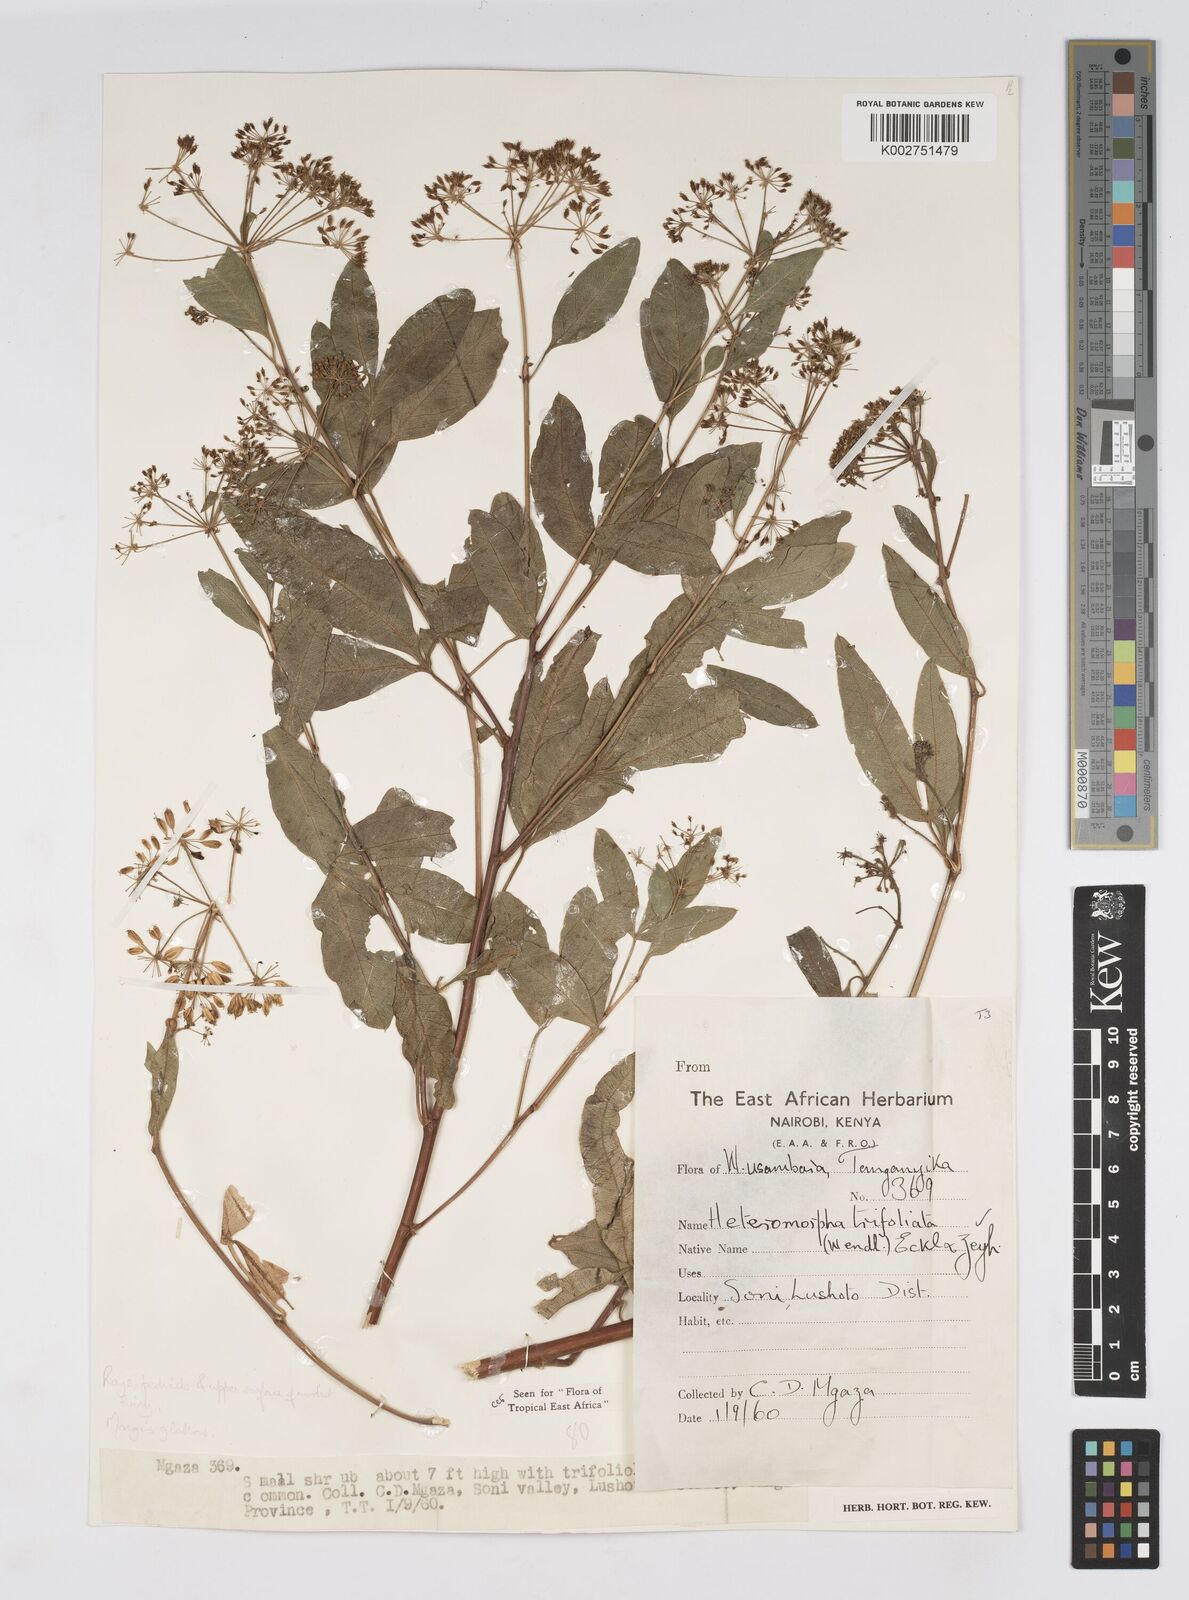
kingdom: Plantae
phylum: Tracheophyta
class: Magnoliopsida
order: Apiales
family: Apiaceae
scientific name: Apiaceae
